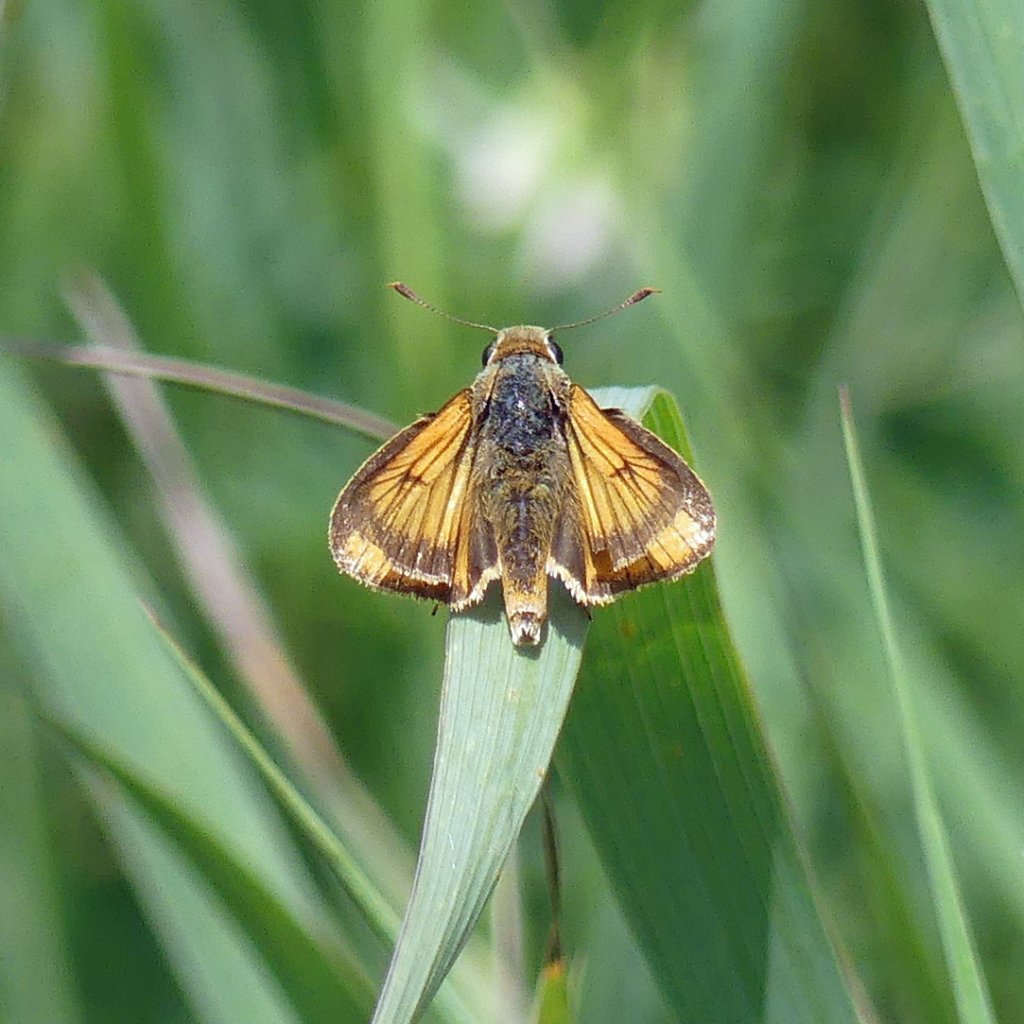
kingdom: Animalia
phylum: Arthropoda
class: Insecta
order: Lepidoptera
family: Hesperiidae
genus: Atrytone
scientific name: Atrytone delaware
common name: Delaware Skipper
